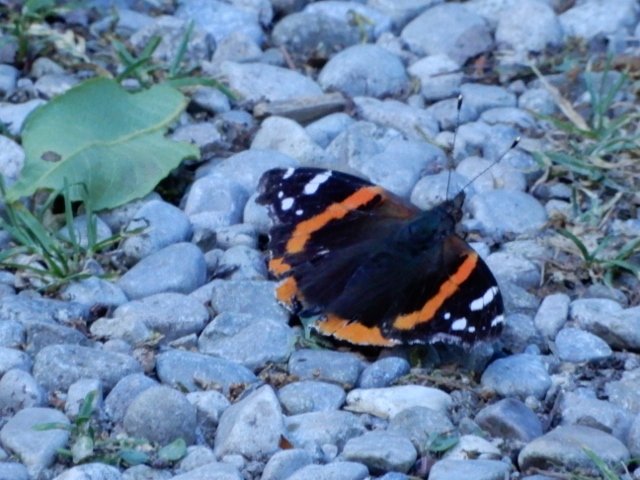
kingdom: Animalia
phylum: Arthropoda
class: Insecta
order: Lepidoptera
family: Nymphalidae
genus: Vanessa
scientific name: Vanessa atalanta
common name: Red Admiral
